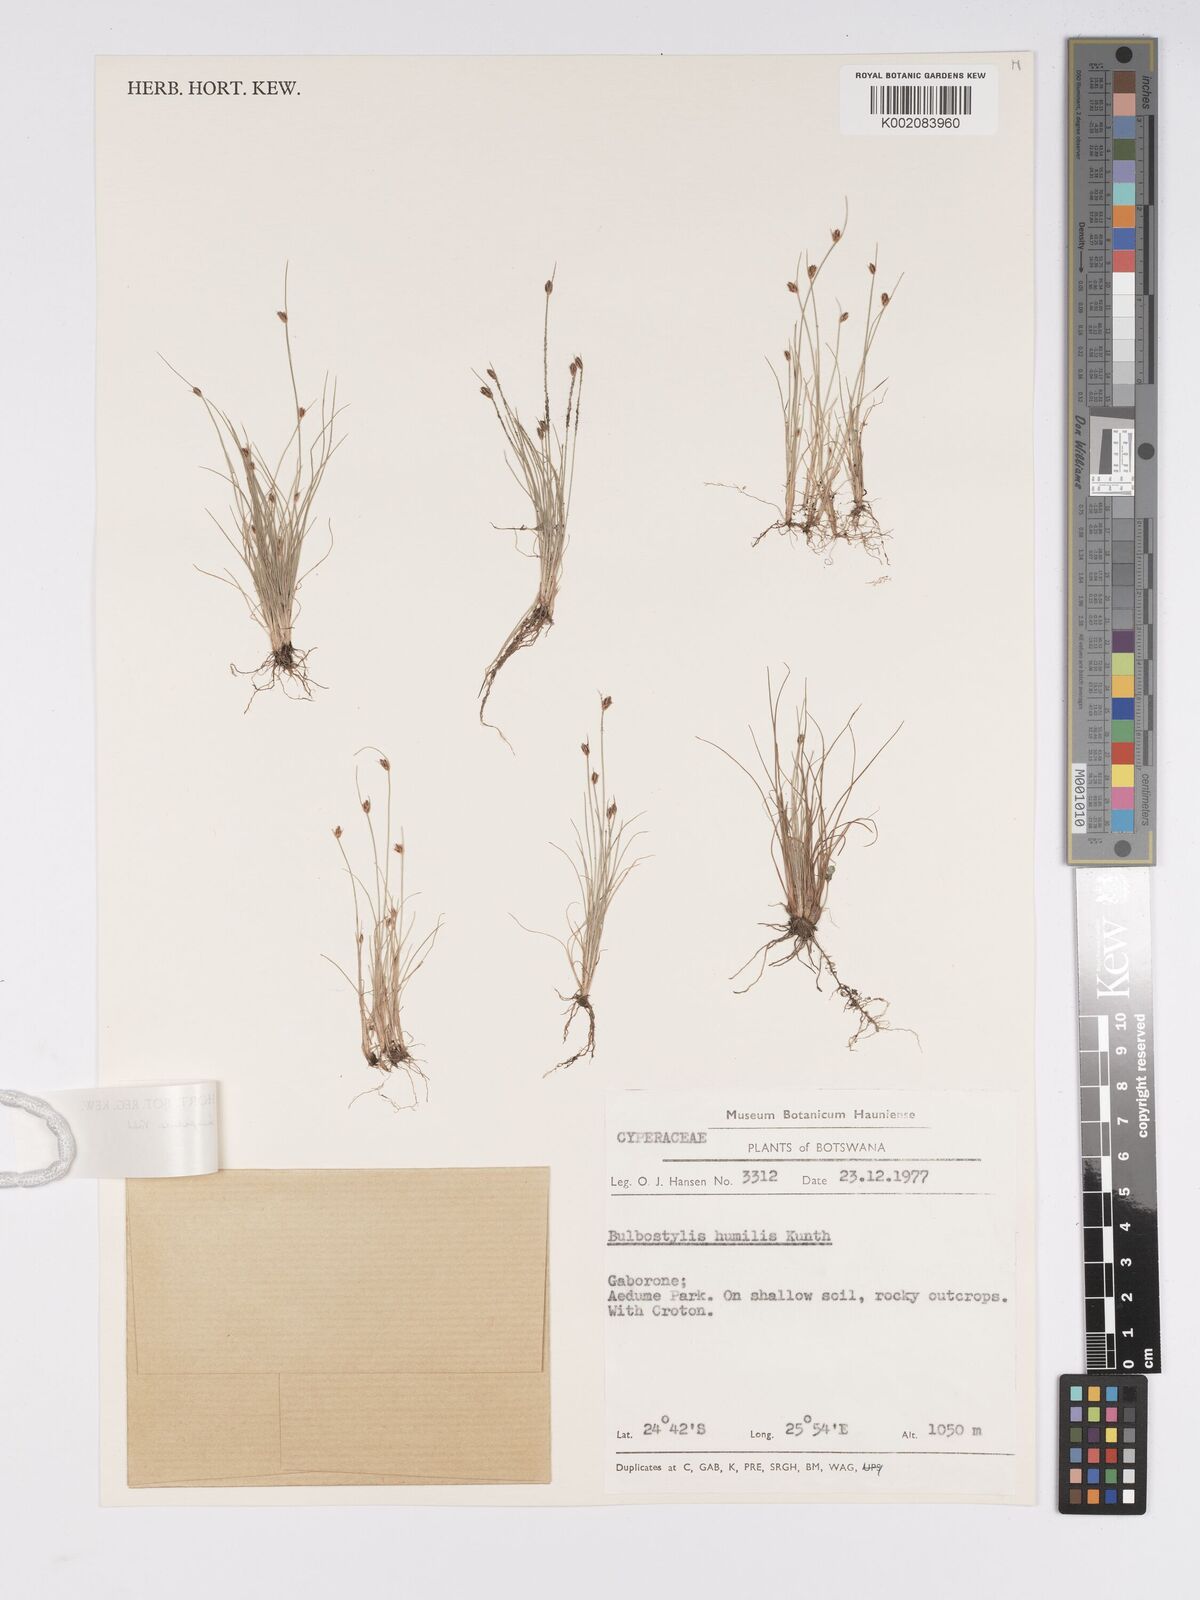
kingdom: Plantae
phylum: Tracheophyta
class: Liliopsida
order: Poales
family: Cyperaceae
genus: Bulbostylis
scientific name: Bulbostylis hispidula
